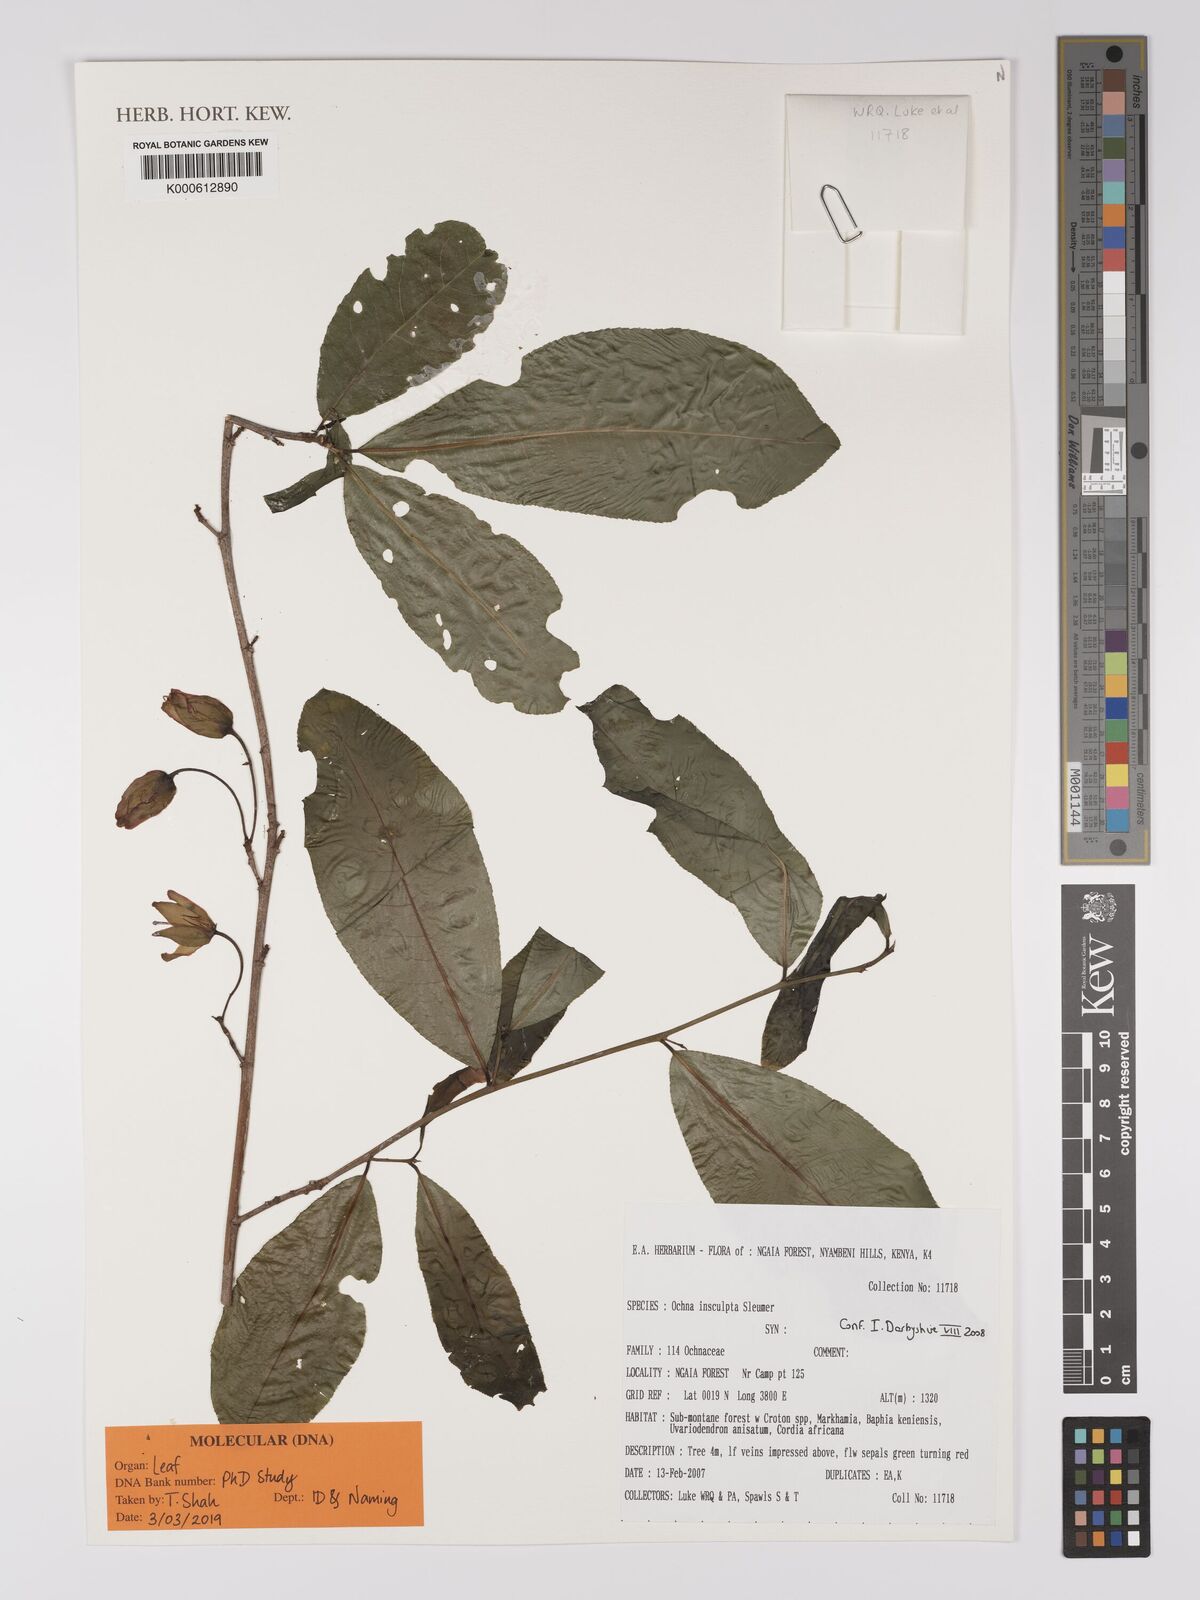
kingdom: Plantae
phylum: Tracheophyta
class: Magnoliopsida
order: Malpighiales
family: Ochnaceae
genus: Ochna
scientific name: Ochna insculpta
